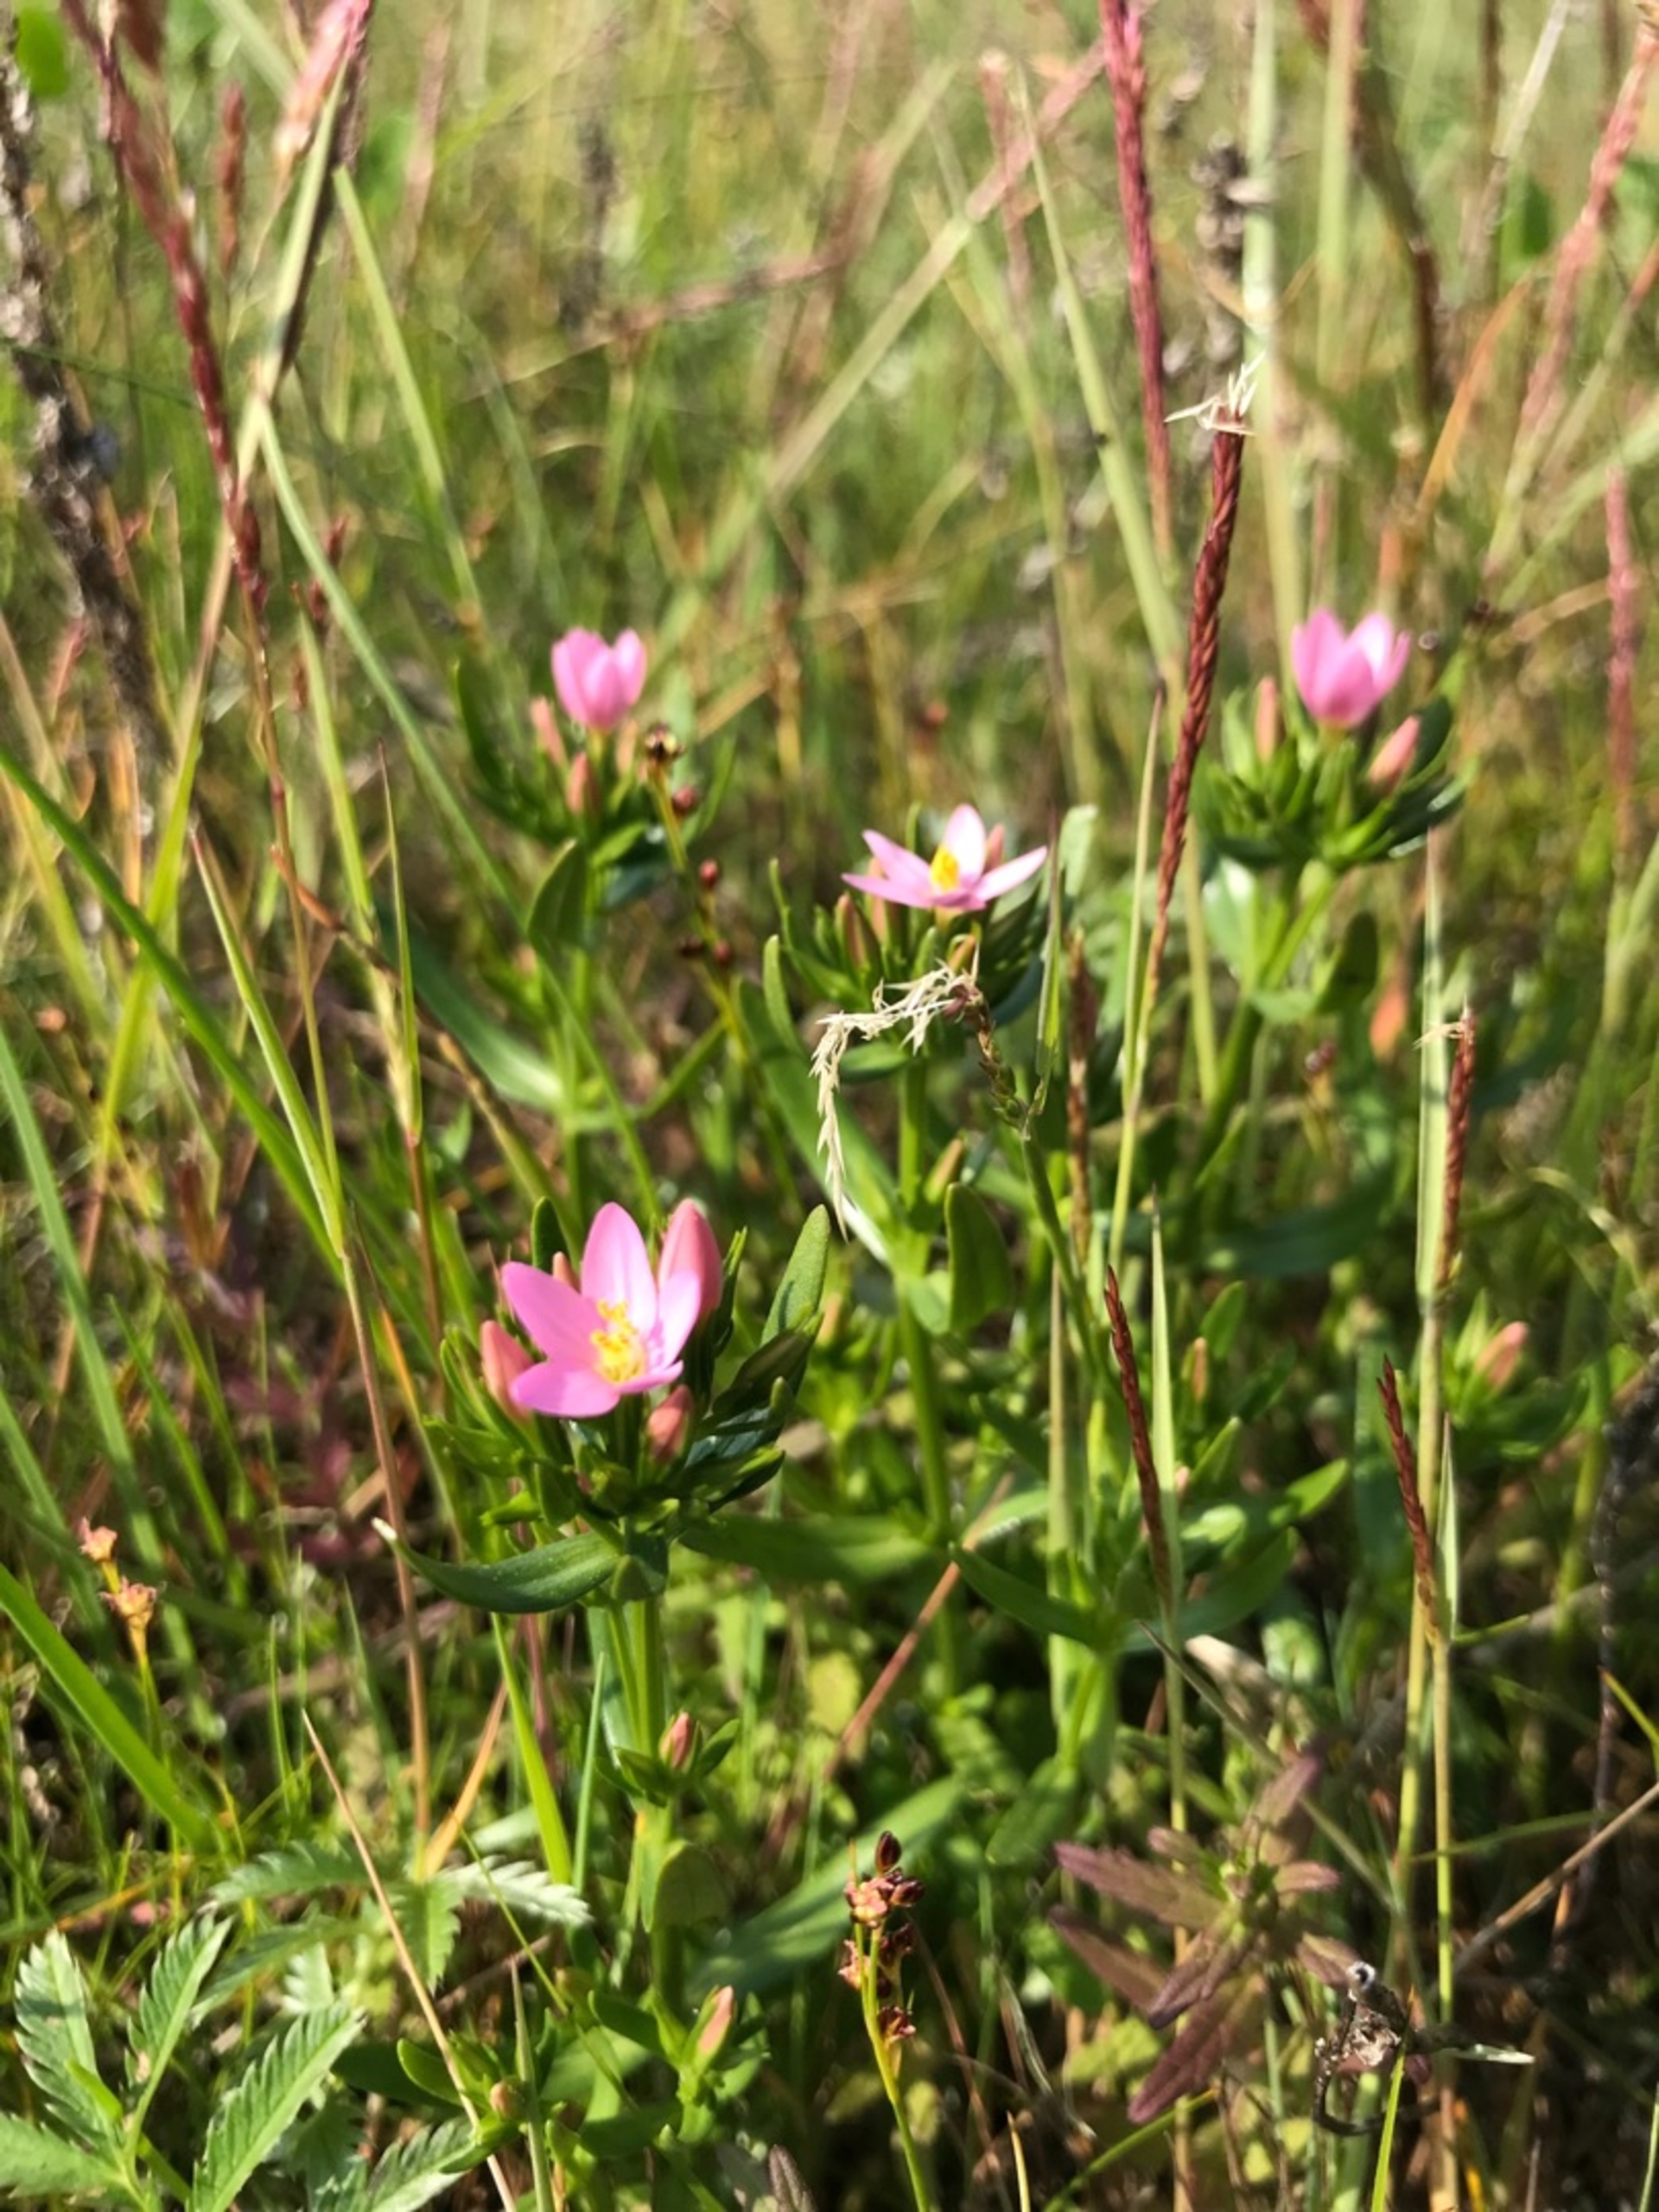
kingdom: Plantae
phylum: Tracheophyta
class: Magnoliopsida
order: Gentianales
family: Gentianaceae
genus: Centaurium
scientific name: Centaurium littorale
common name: Strand-tusindgylden
